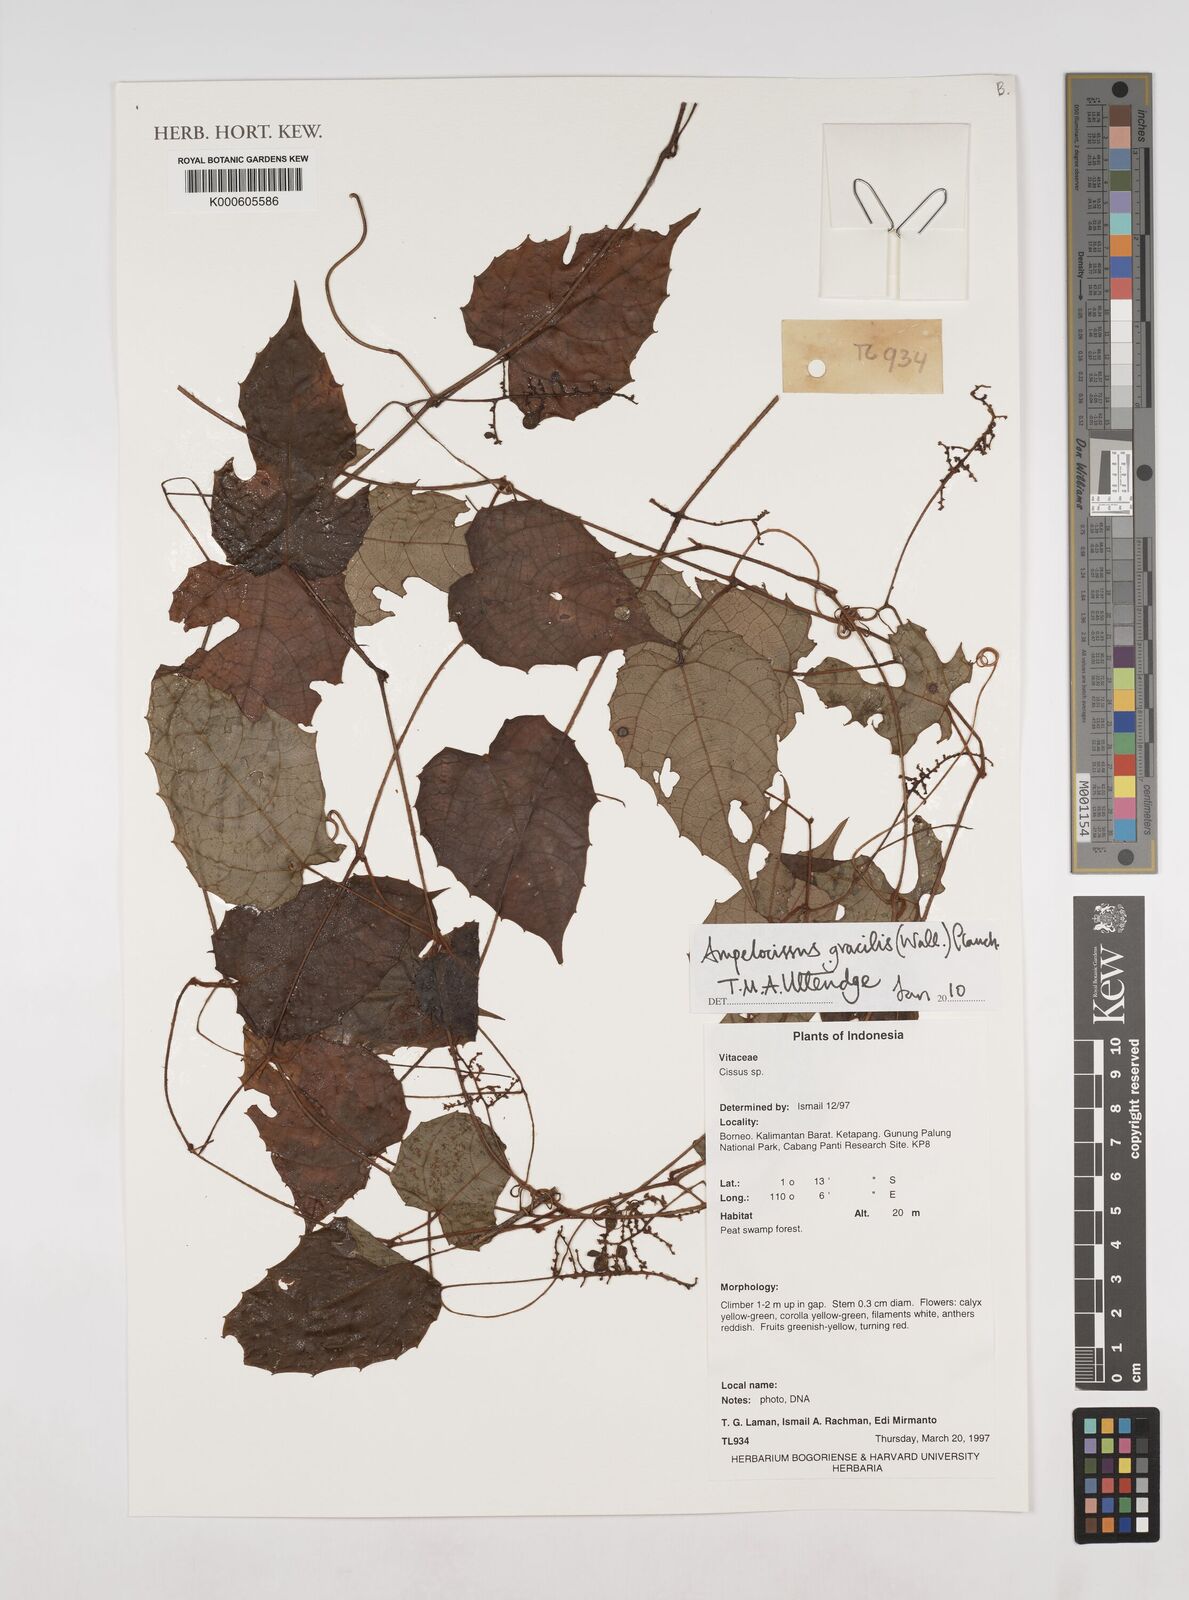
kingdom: Plantae
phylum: Tracheophyta
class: Magnoliopsida
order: Vitales
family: Vitaceae
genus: Ampelocissus
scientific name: Ampelocissus gracilis
